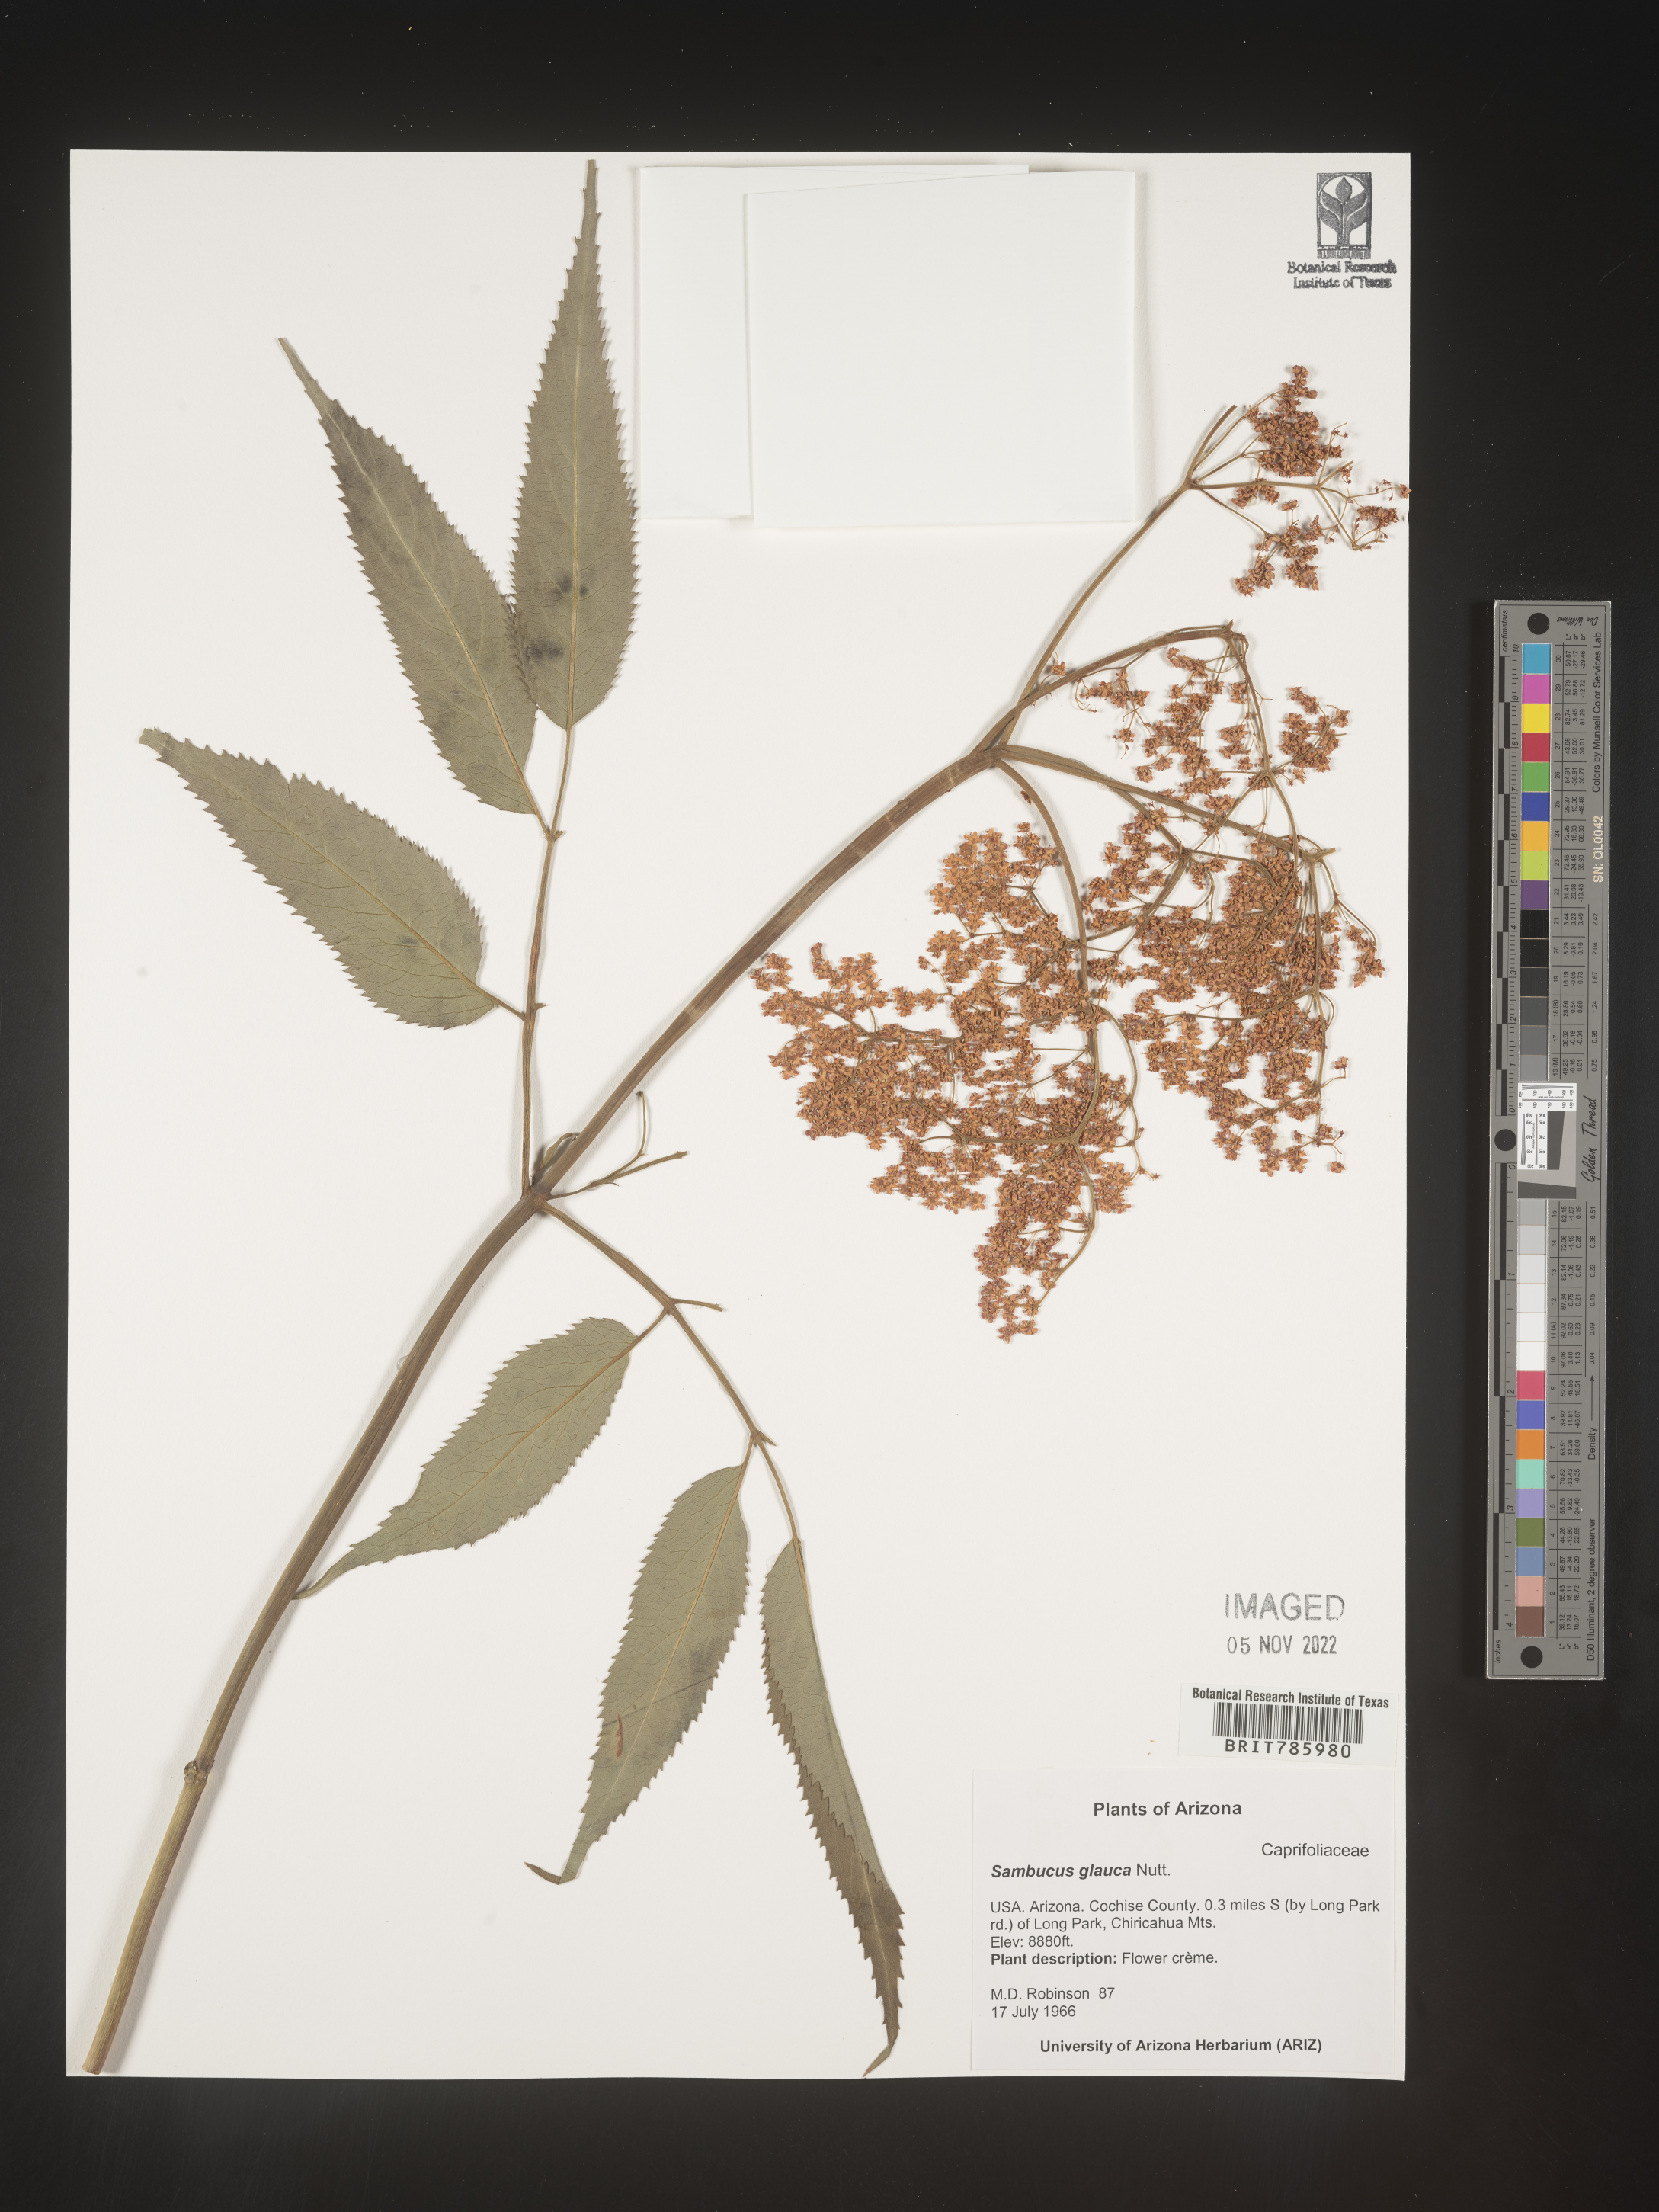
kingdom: Plantae
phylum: Tracheophyta
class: Magnoliopsida
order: Dipsacales
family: Viburnaceae
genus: Sambucus
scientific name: Sambucus
